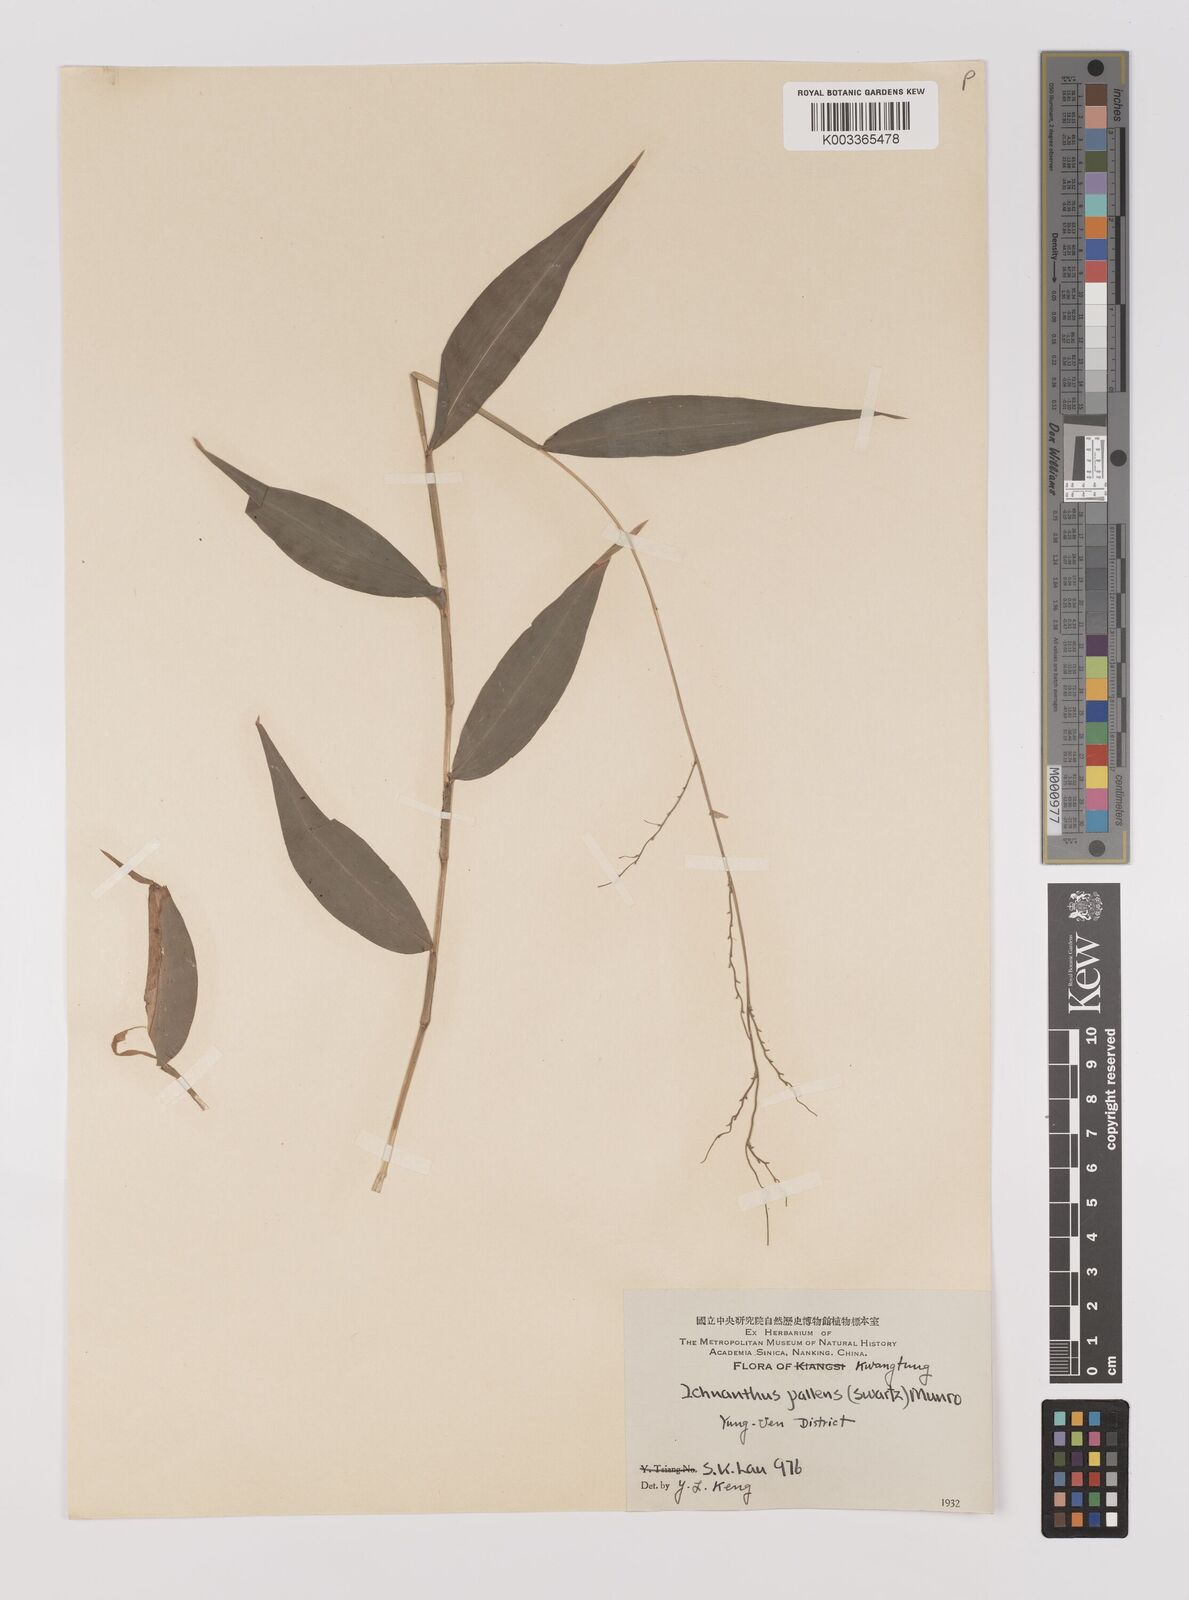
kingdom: Plantae
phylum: Tracheophyta
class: Liliopsida
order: Poales
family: Poaceae
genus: Ichnanthus
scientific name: Ichnanthus pallens
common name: Water grass
